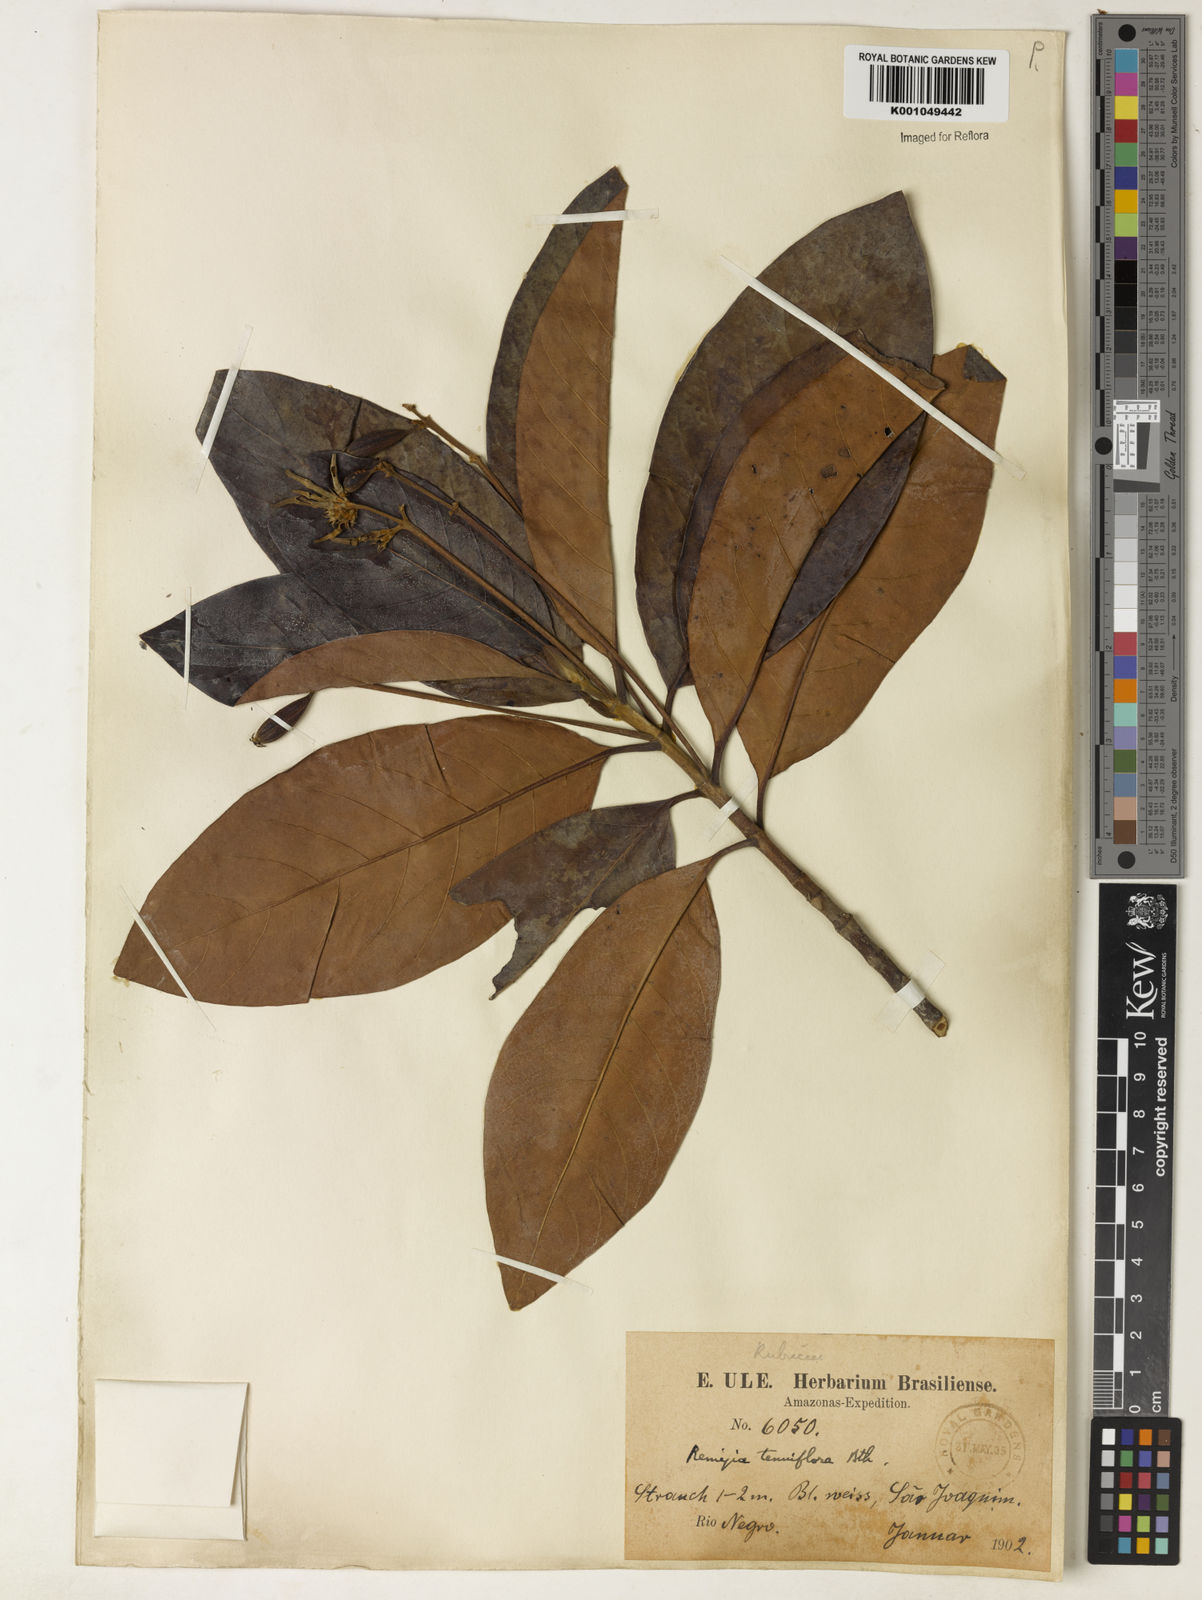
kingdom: Plantae
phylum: Tracheophyta
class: Magnoliopsida
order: Gentianales
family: Rubiaceae
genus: Remijia
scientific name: Remijia tenuiflora
